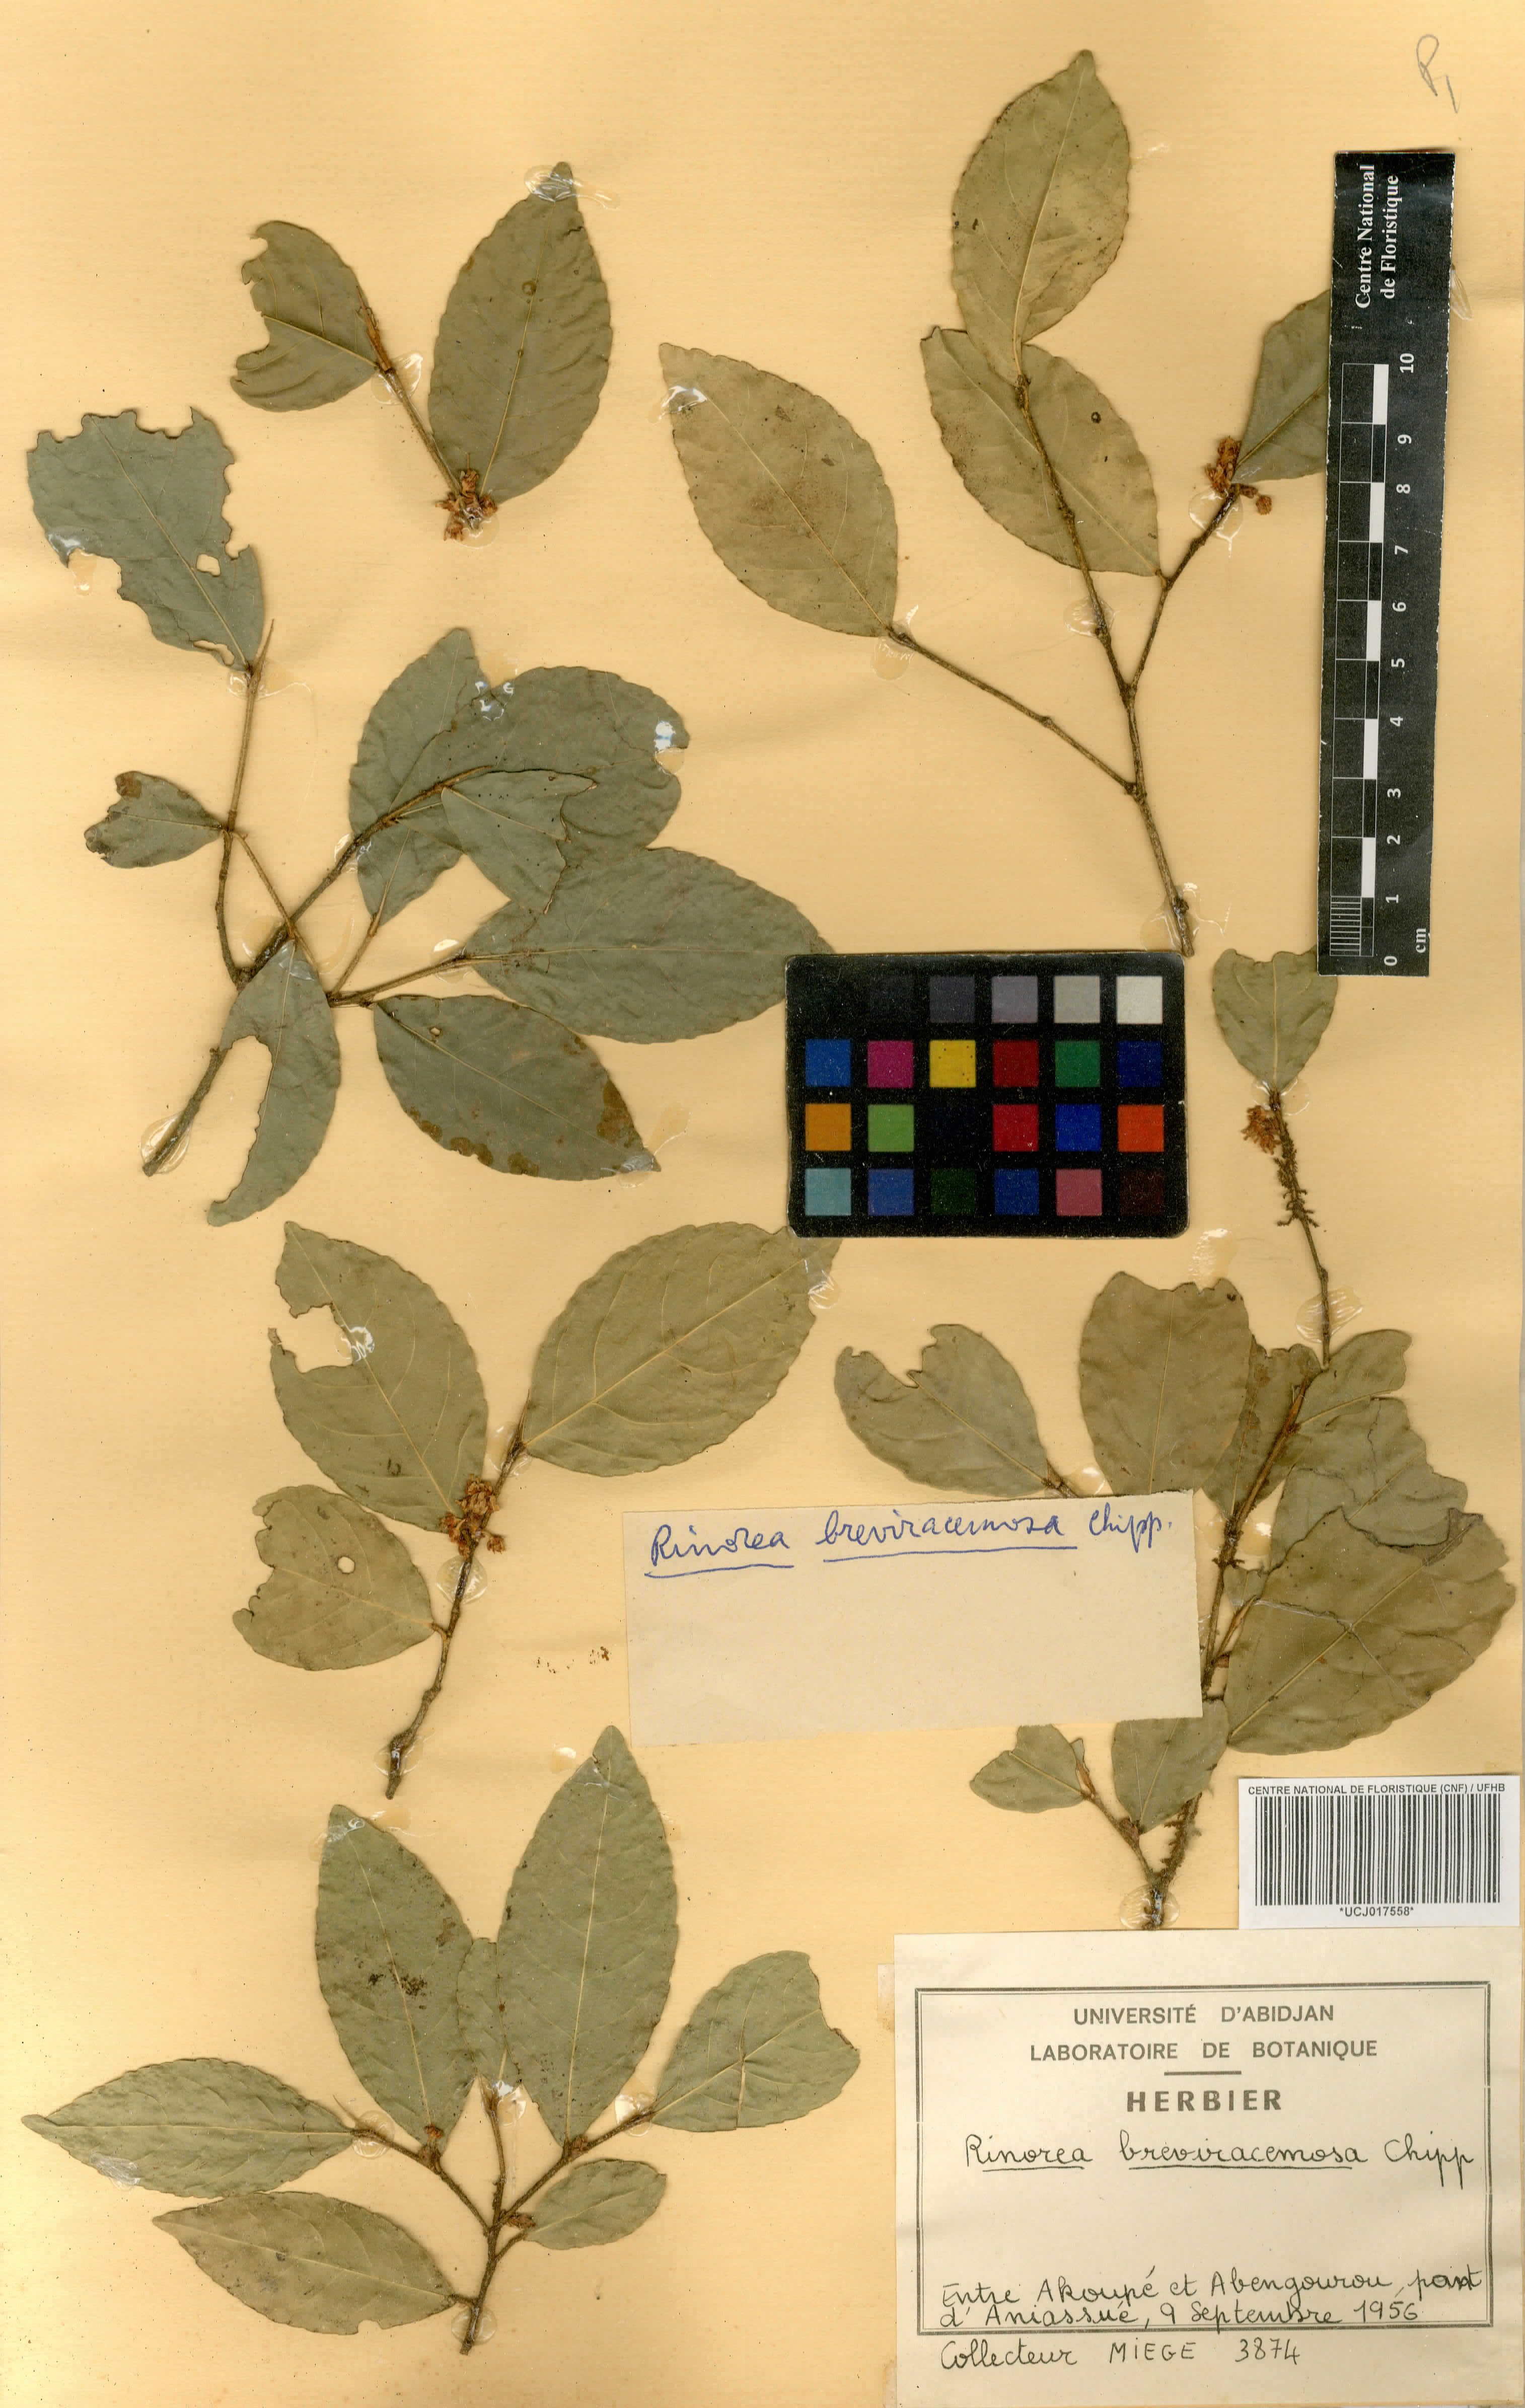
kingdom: Plantae
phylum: Tracheophyta
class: Magnoliopsida
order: Malpighiales
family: Violaceae
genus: Rinorea
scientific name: Rinorea breviracemosa
